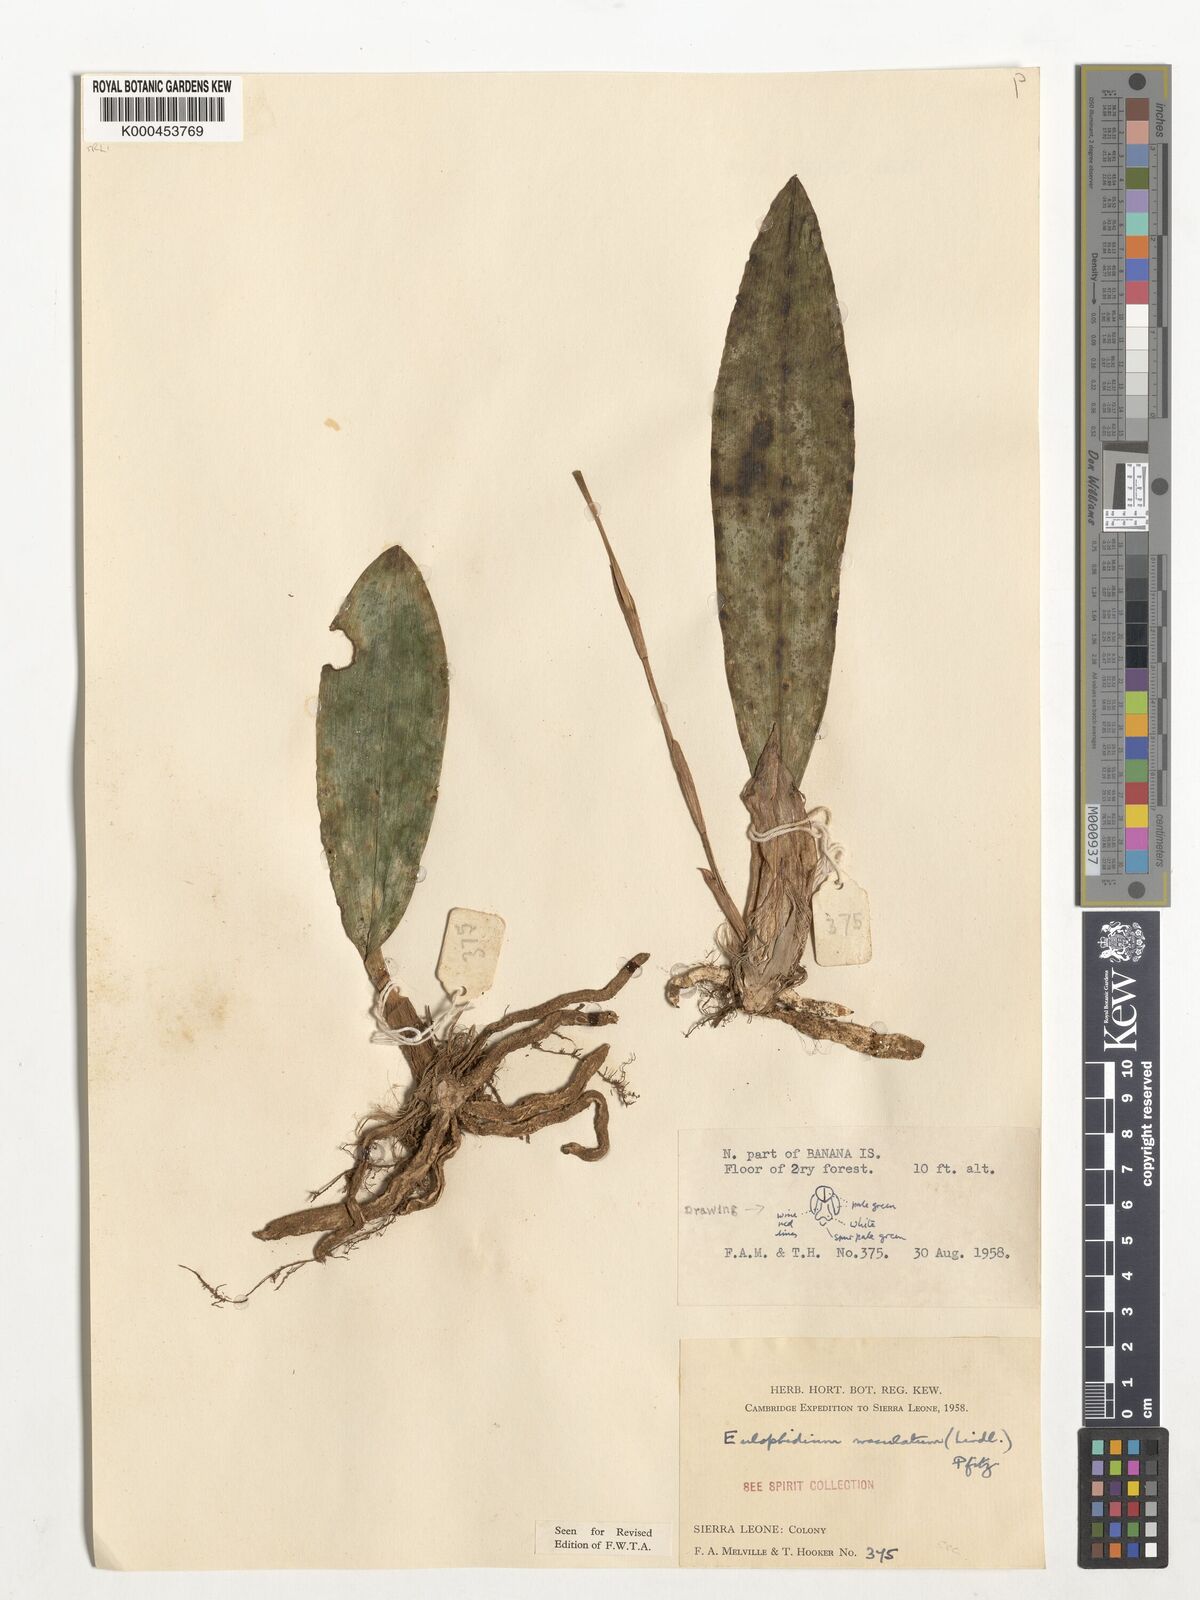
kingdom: Plantae
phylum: Tracheophyta
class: Liliopsida
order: Asparagales
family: Orchidaceae
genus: Eulophia
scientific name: Eulophia maculata
